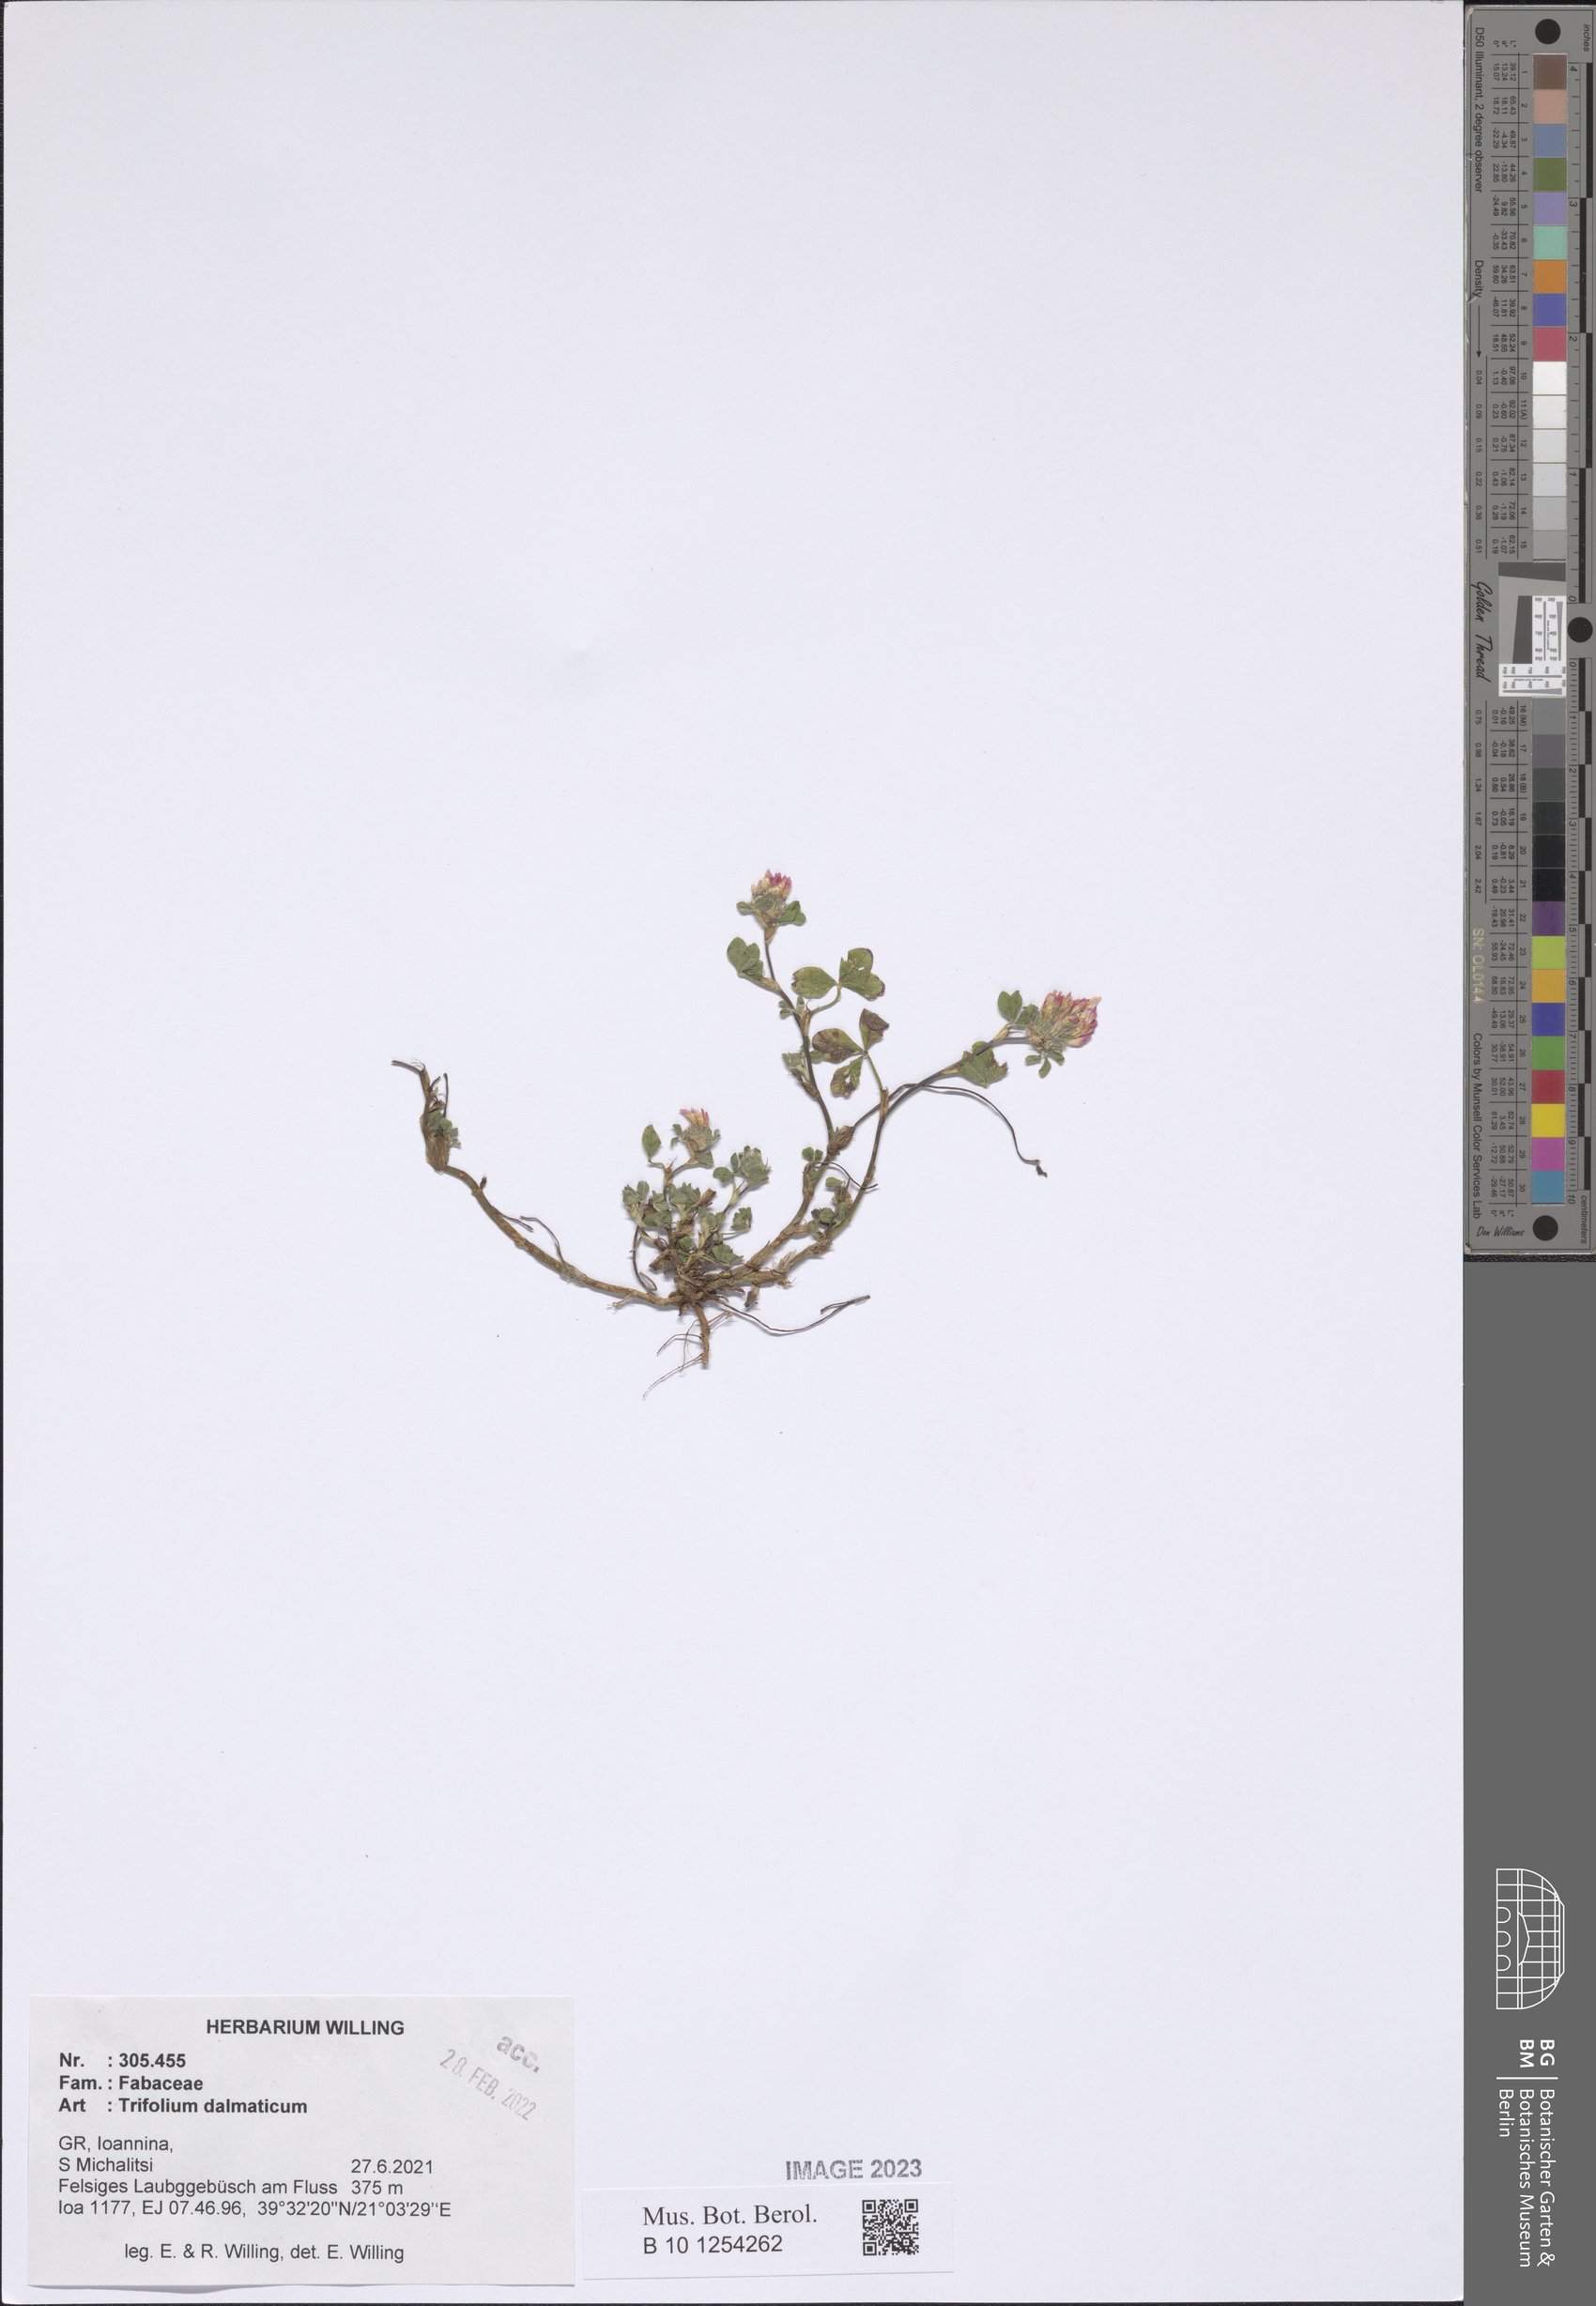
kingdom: Plantae
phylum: Tracheophyta
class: Magnoliopsida
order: Fabales
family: Fabaceae
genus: Trifolium
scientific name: Trifolium dalmaticum
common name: Dalmatian clover
